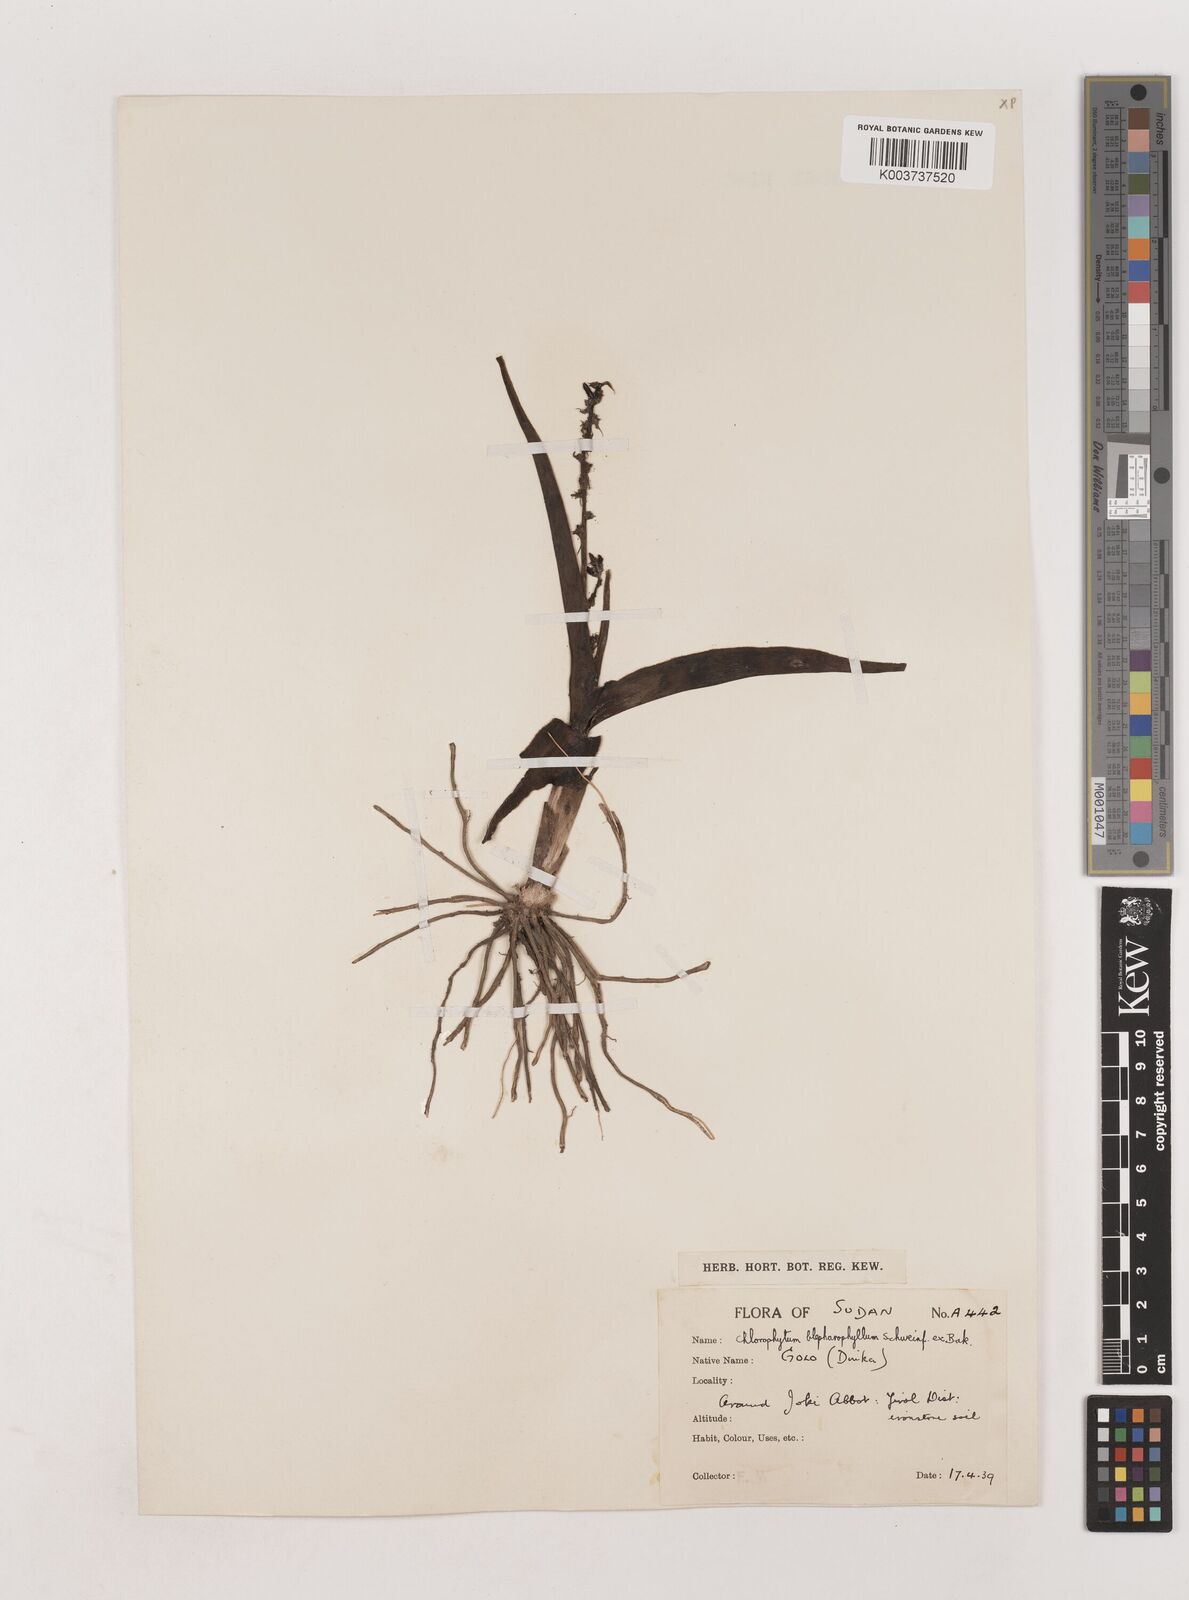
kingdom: Plantae
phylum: Tracheophyta
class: Liliopsida
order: Asparagales
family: Asparagaceae
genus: Chlorophytum
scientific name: Chlorophytum blepharophyllum
